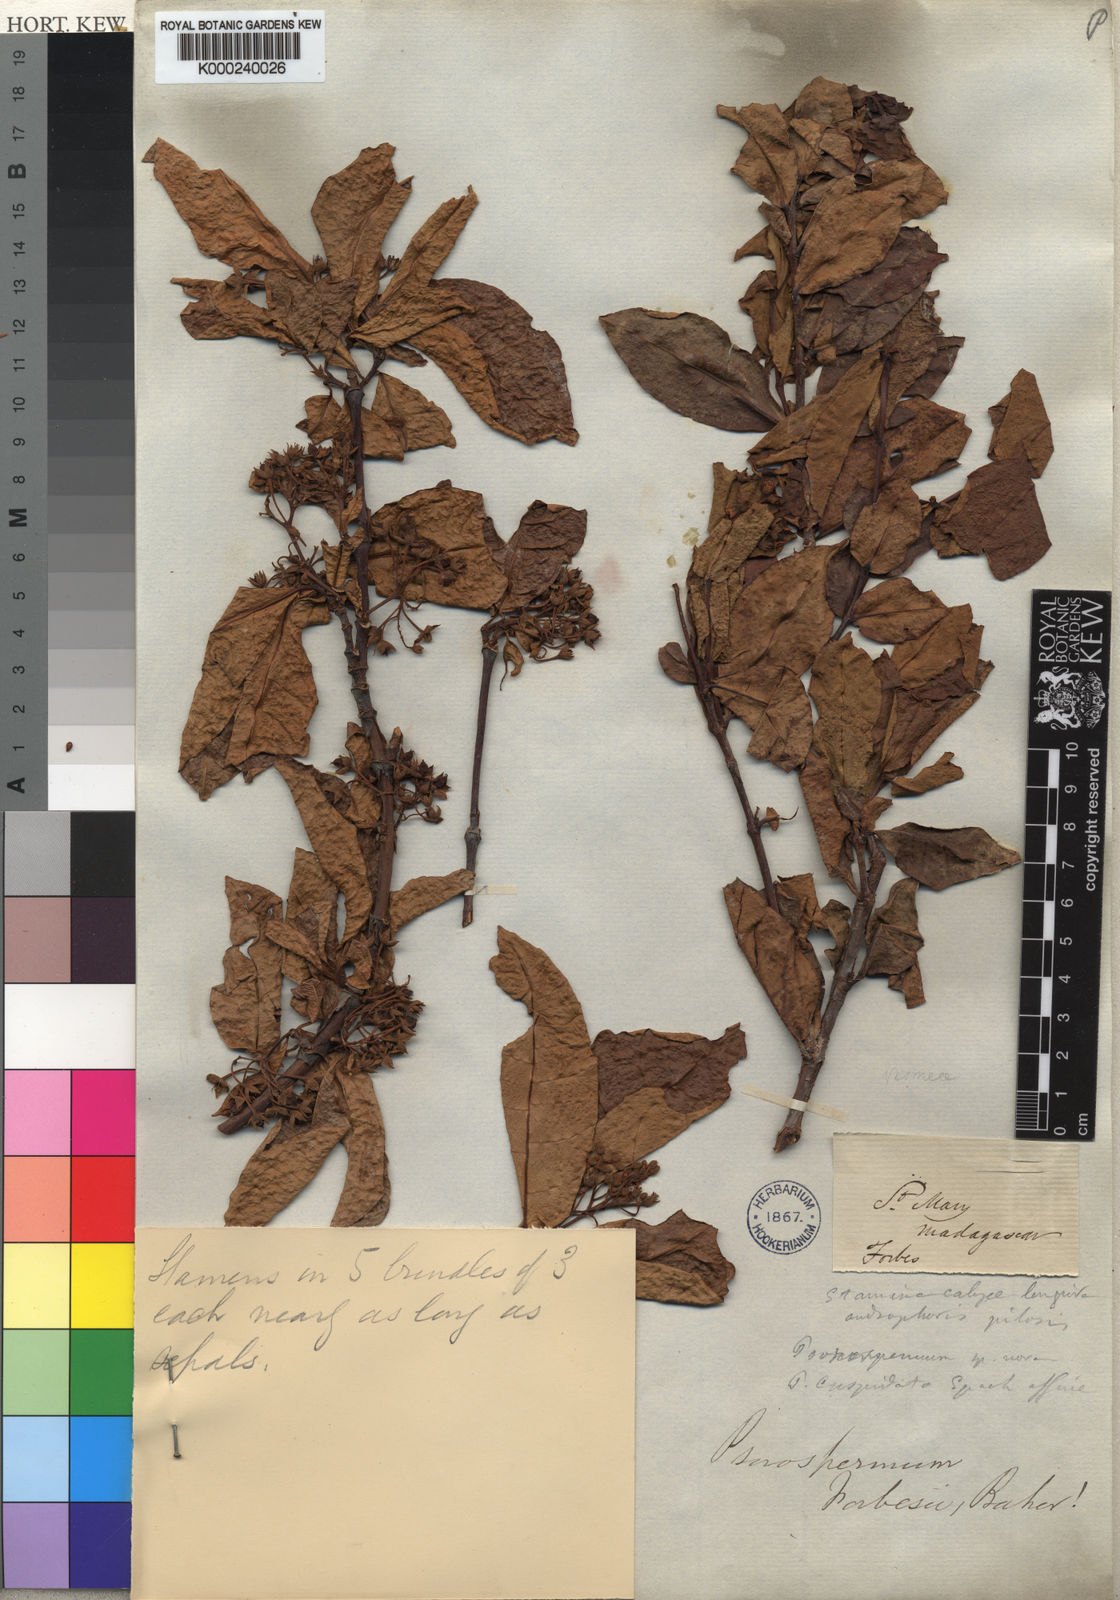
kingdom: Plantae
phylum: Tracheophyta
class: Magnoliopsida
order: Malpighiales
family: Hypericaceae
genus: Psorospermum
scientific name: Psorospermum lanceolatum
